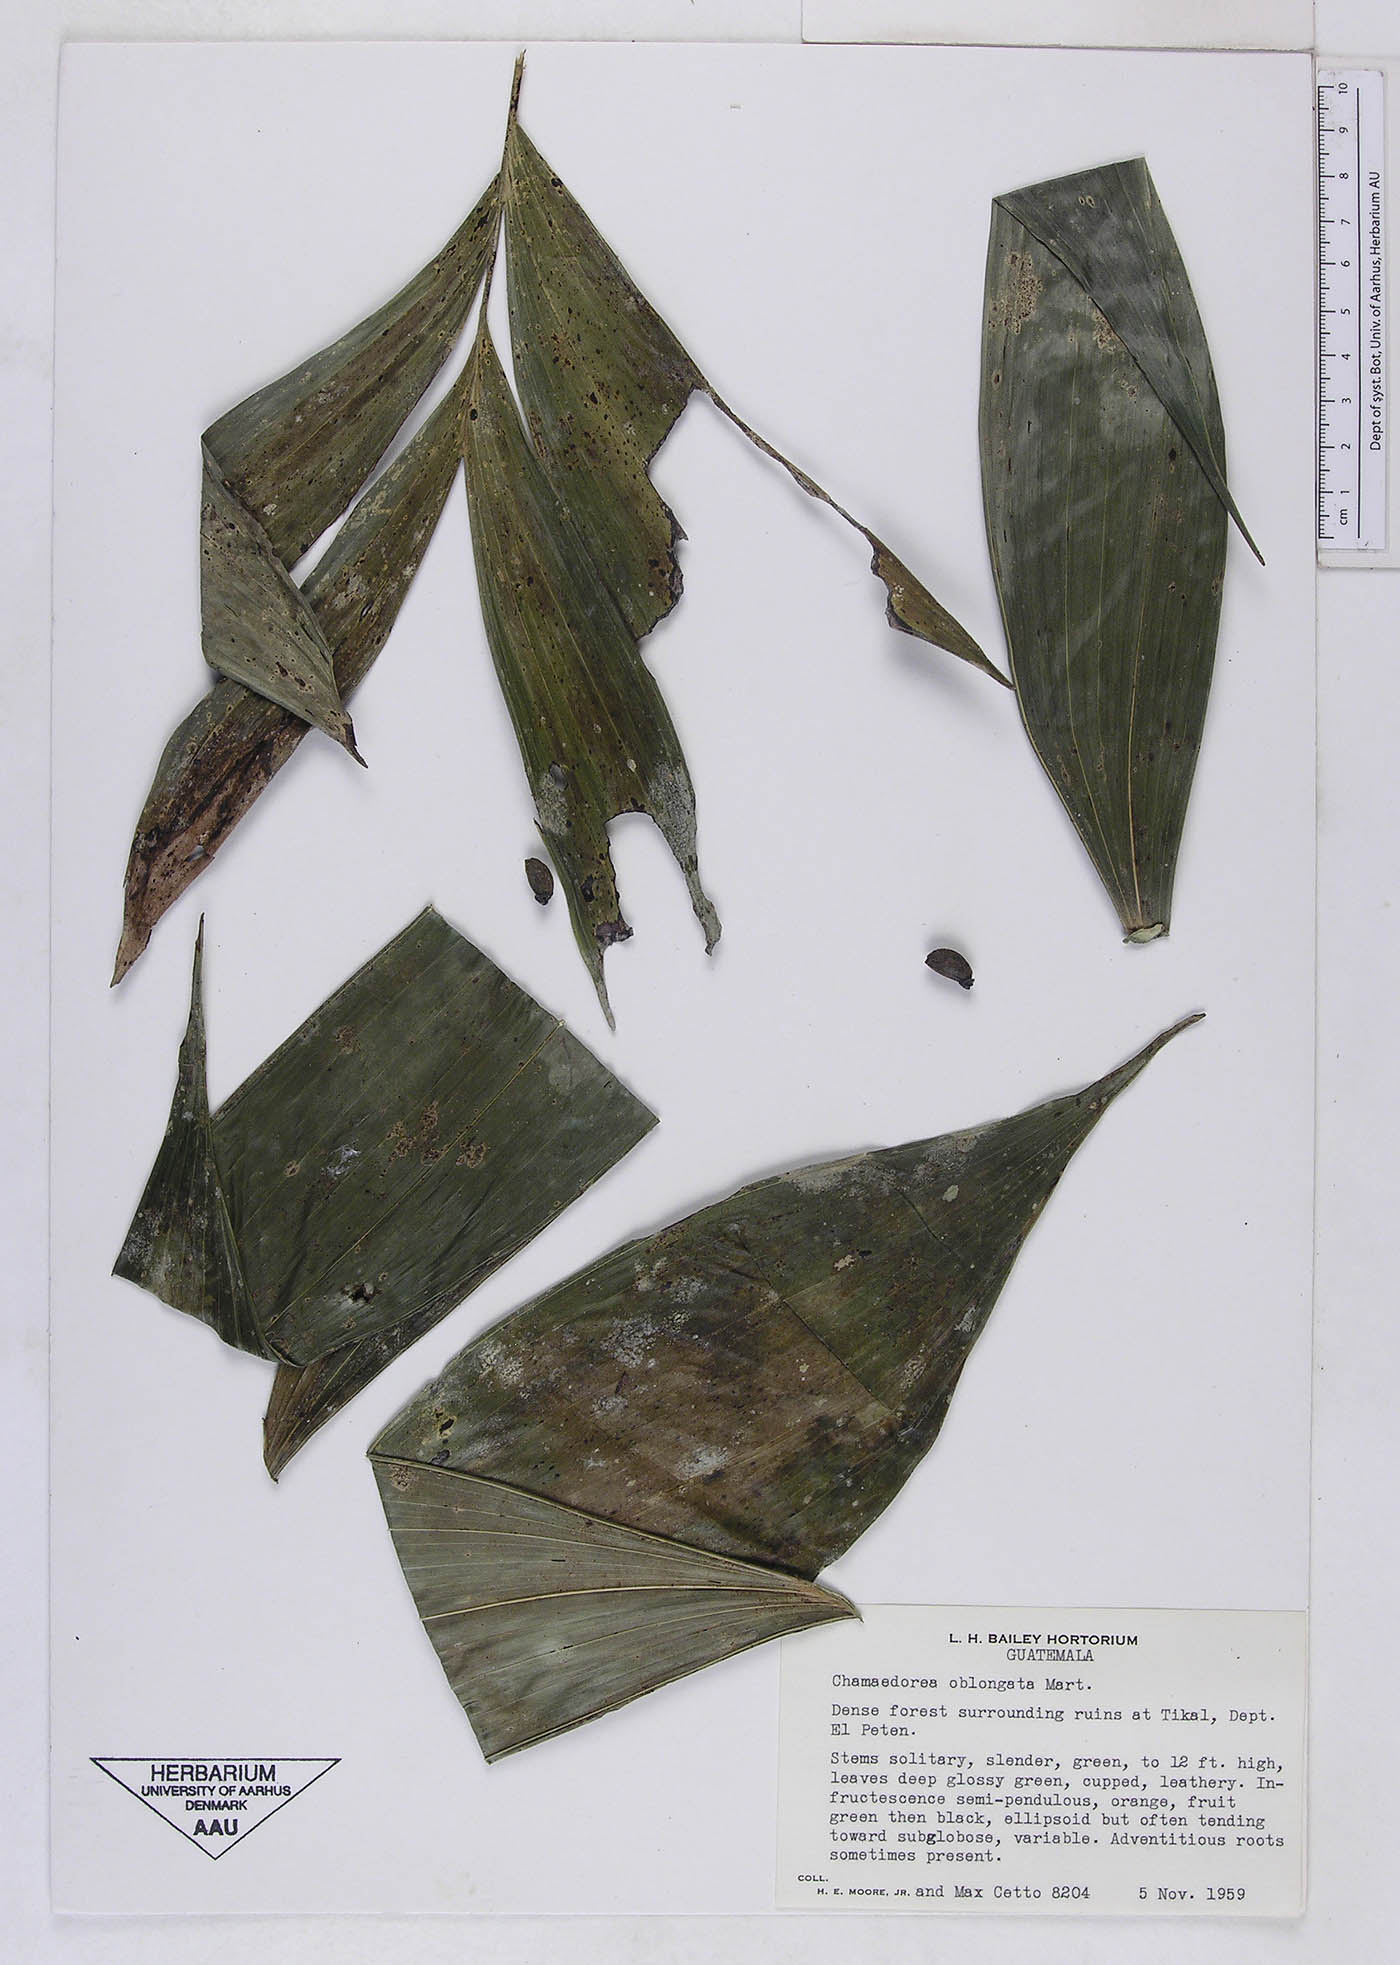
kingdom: Plantae
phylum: Tracheophyta
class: Liliopsida
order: Arecales
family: Arecaceae
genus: Chamaedorea
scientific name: Chamaedorea oblongata
